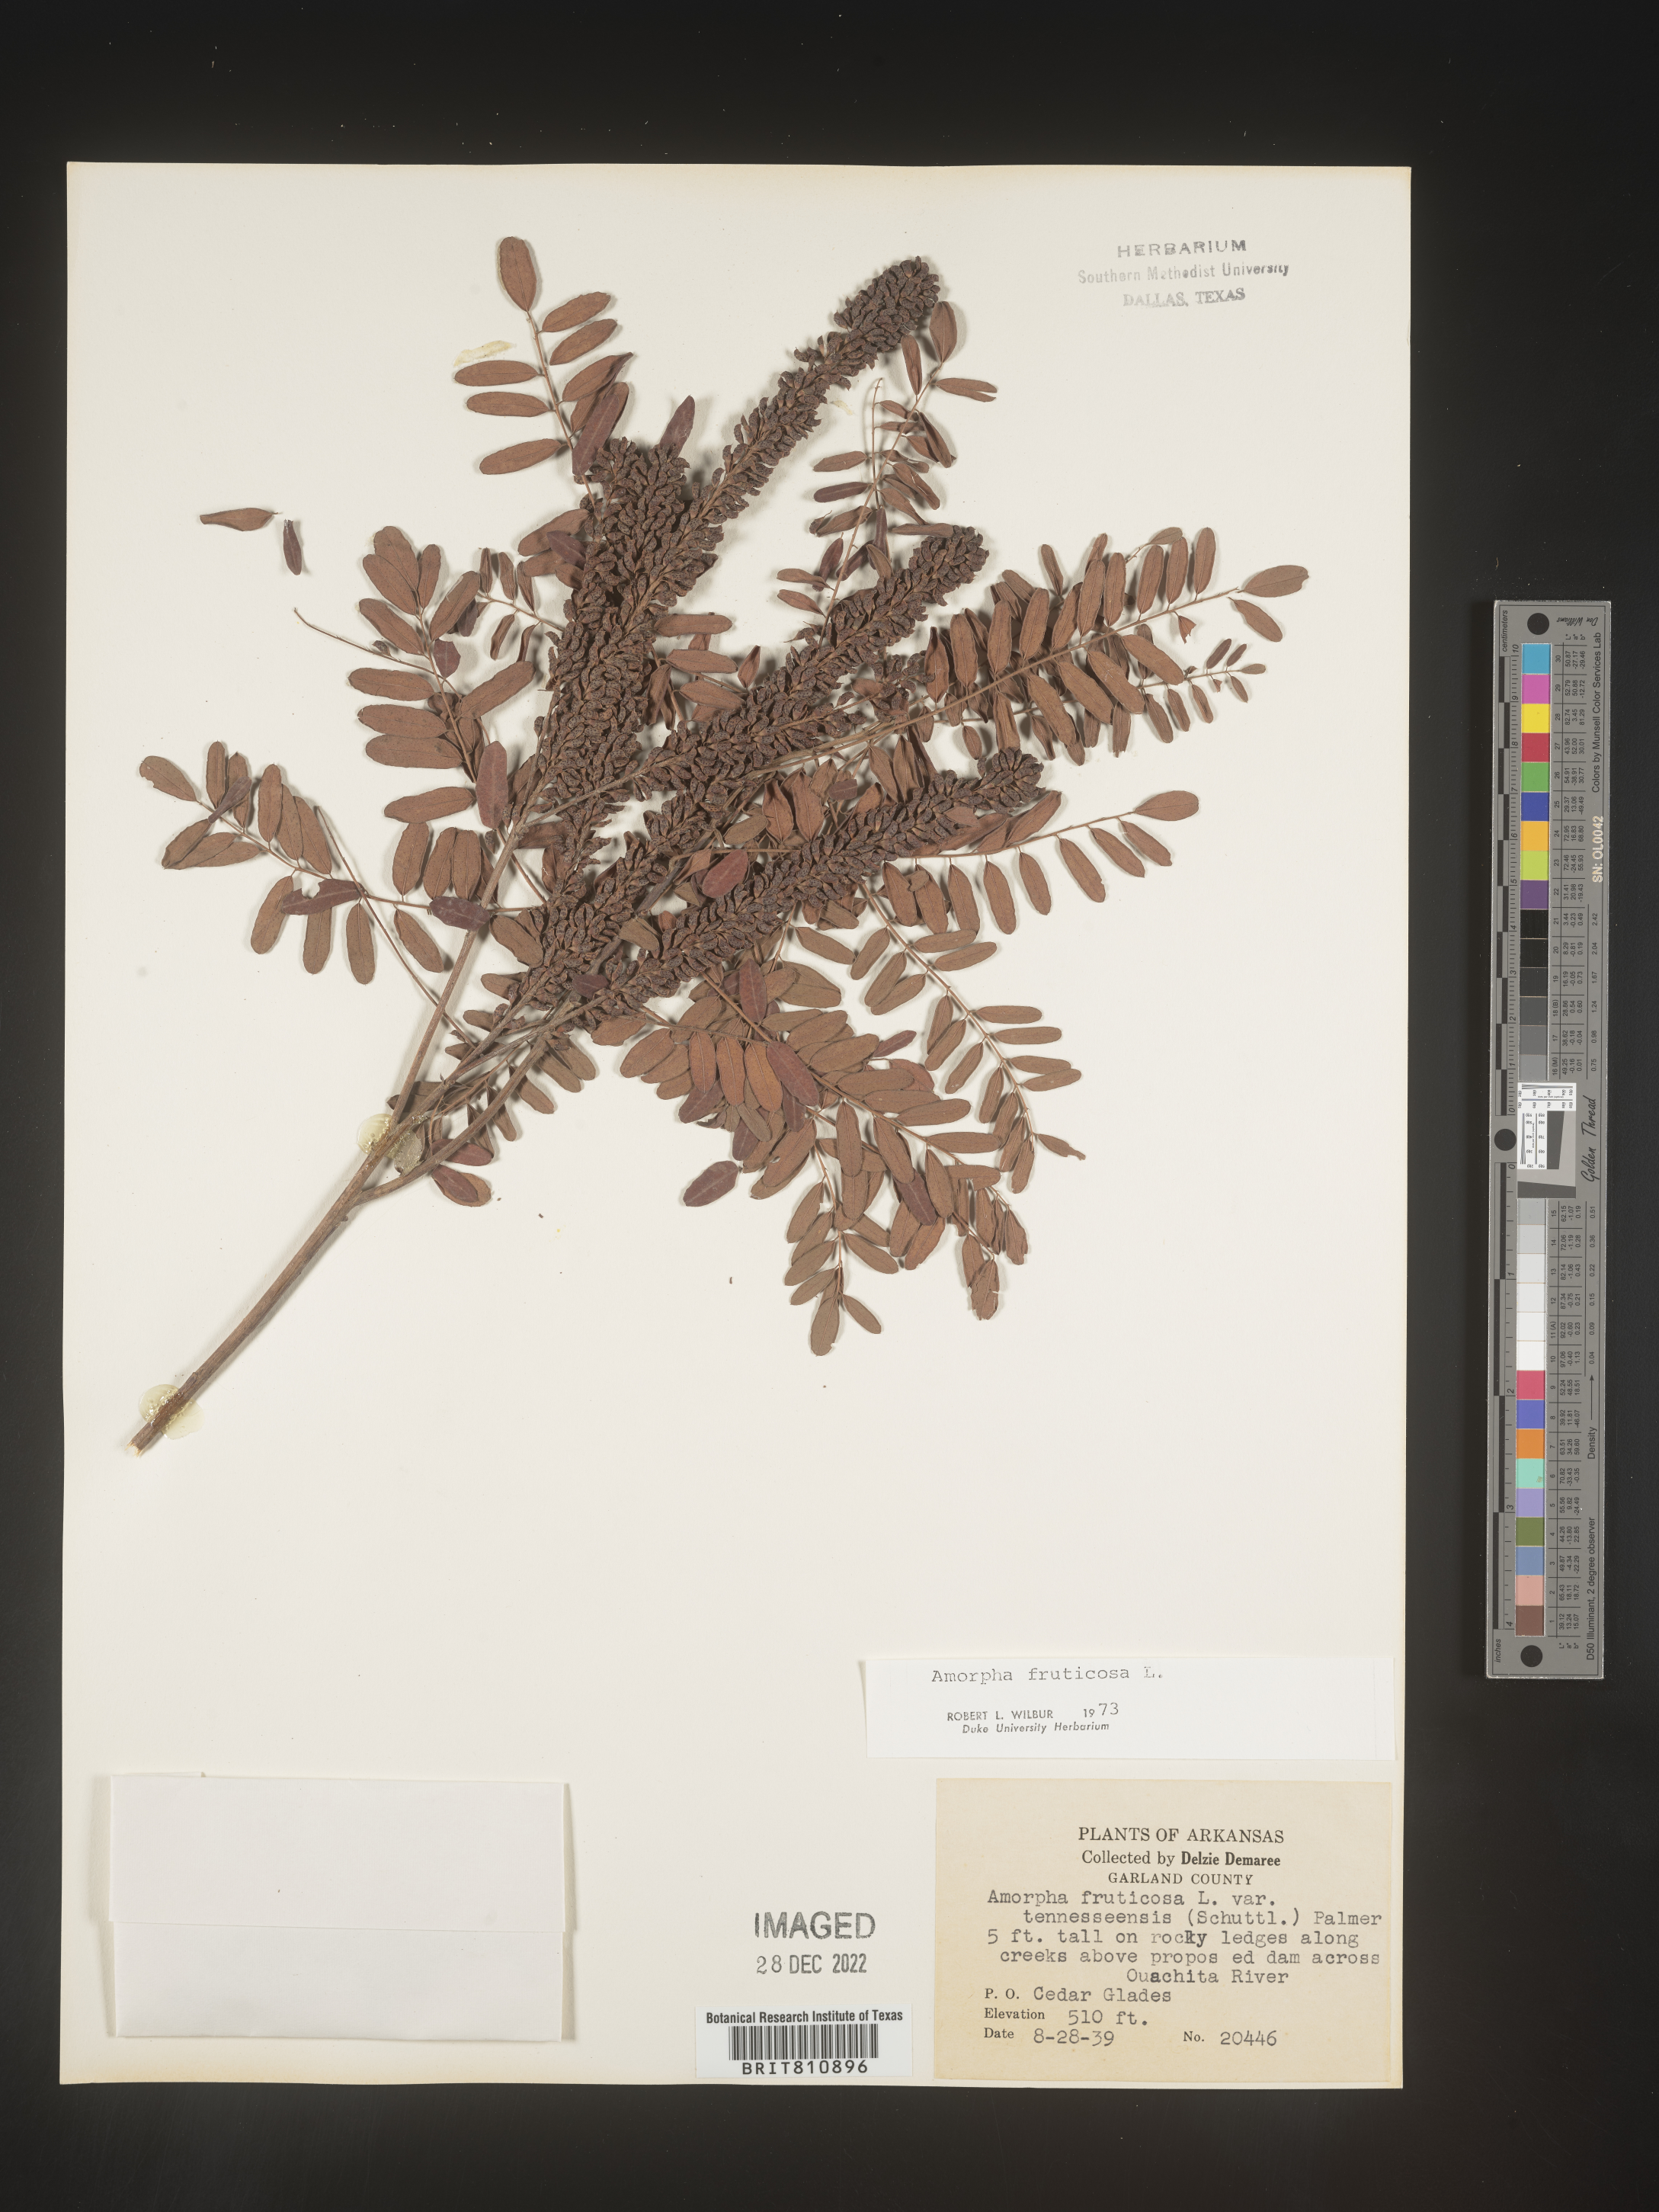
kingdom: Plantae
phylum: Tracheophyta
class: Magnoliopsida
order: Fabales
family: Fabaceae
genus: Amorpha
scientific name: Amorpha fruticosa
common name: False indigo
